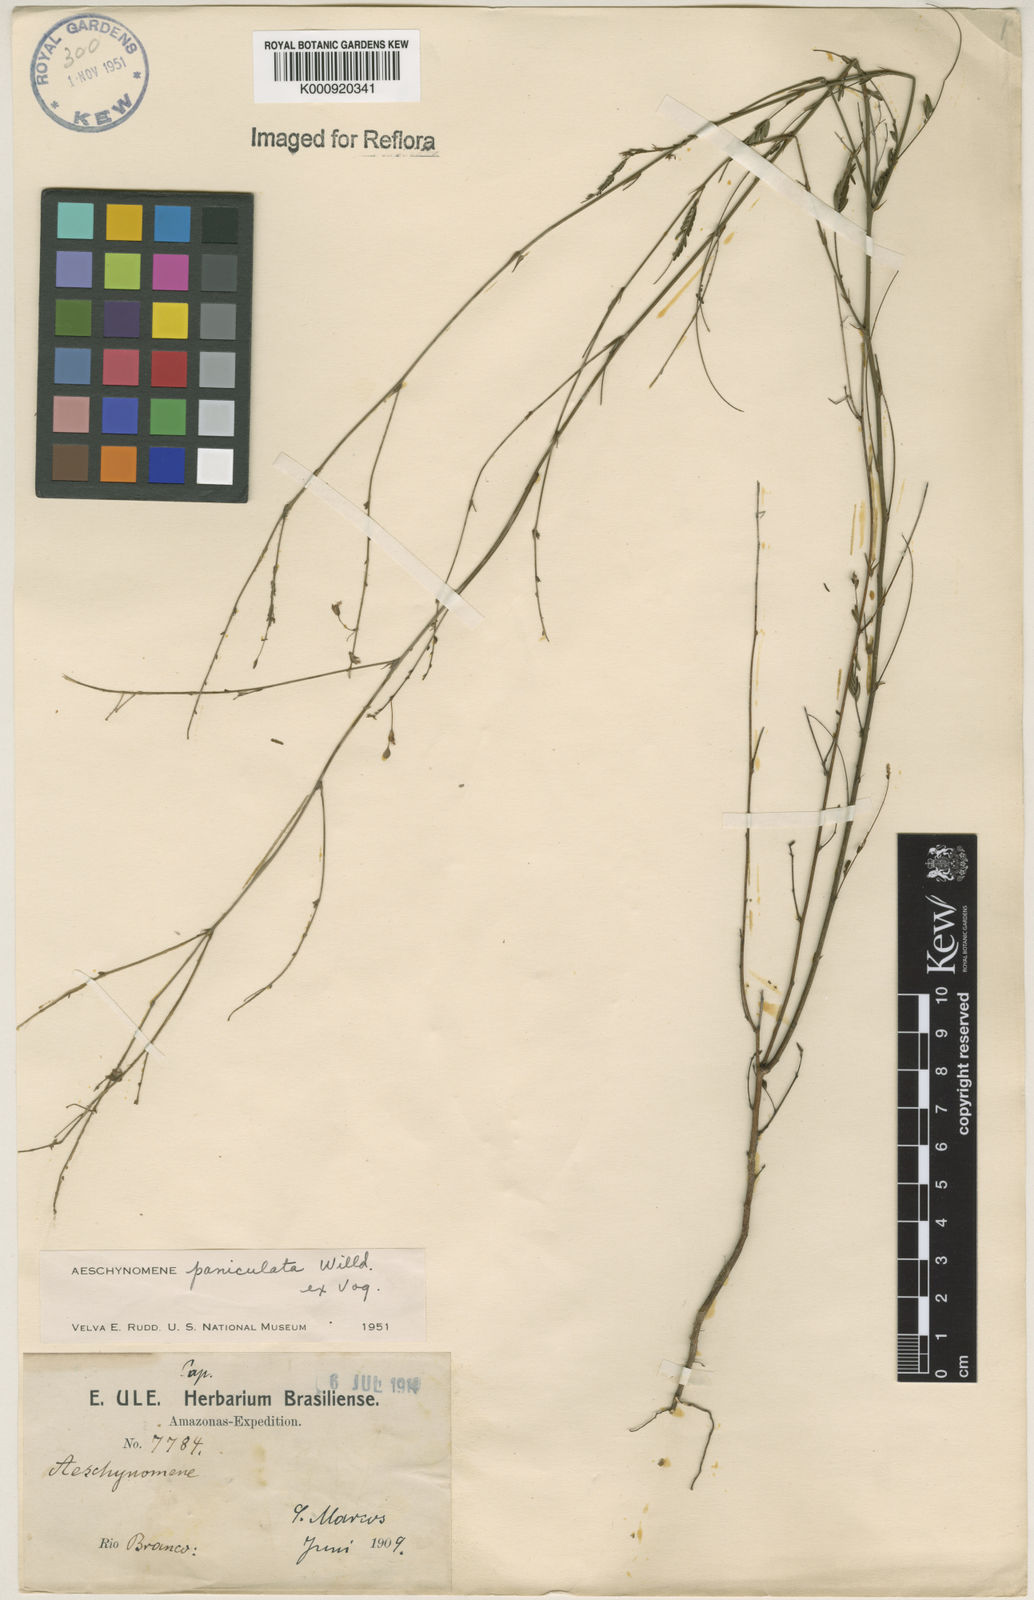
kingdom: Plantae
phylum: Tracheophyta
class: Magnoliopsida
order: Fabales
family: Fabaceae
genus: Ctenodon
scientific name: Ctenodon paniculatus
